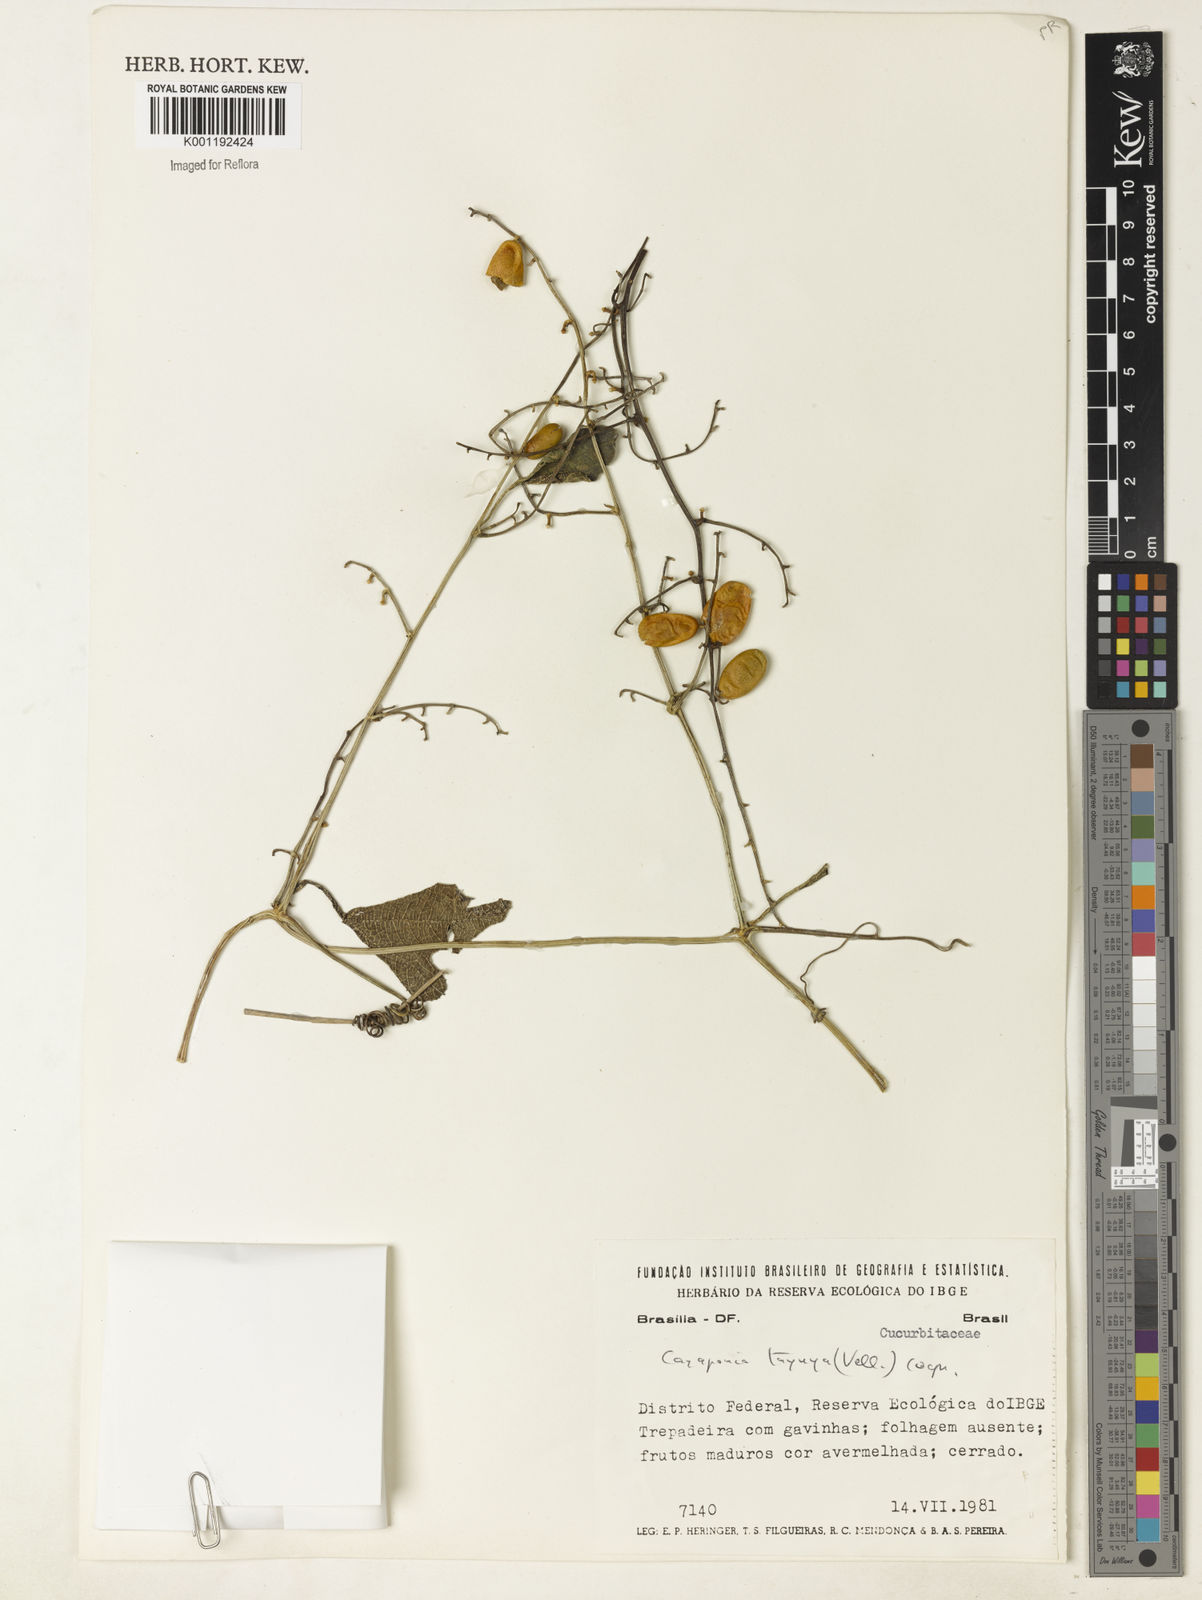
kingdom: Plantae
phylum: Tracheophyta
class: Magnoliopsida
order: Cucurbitales
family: Cucurbitaceae
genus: Cayaponia
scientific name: Cayaponia tayuya
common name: Tayuya
